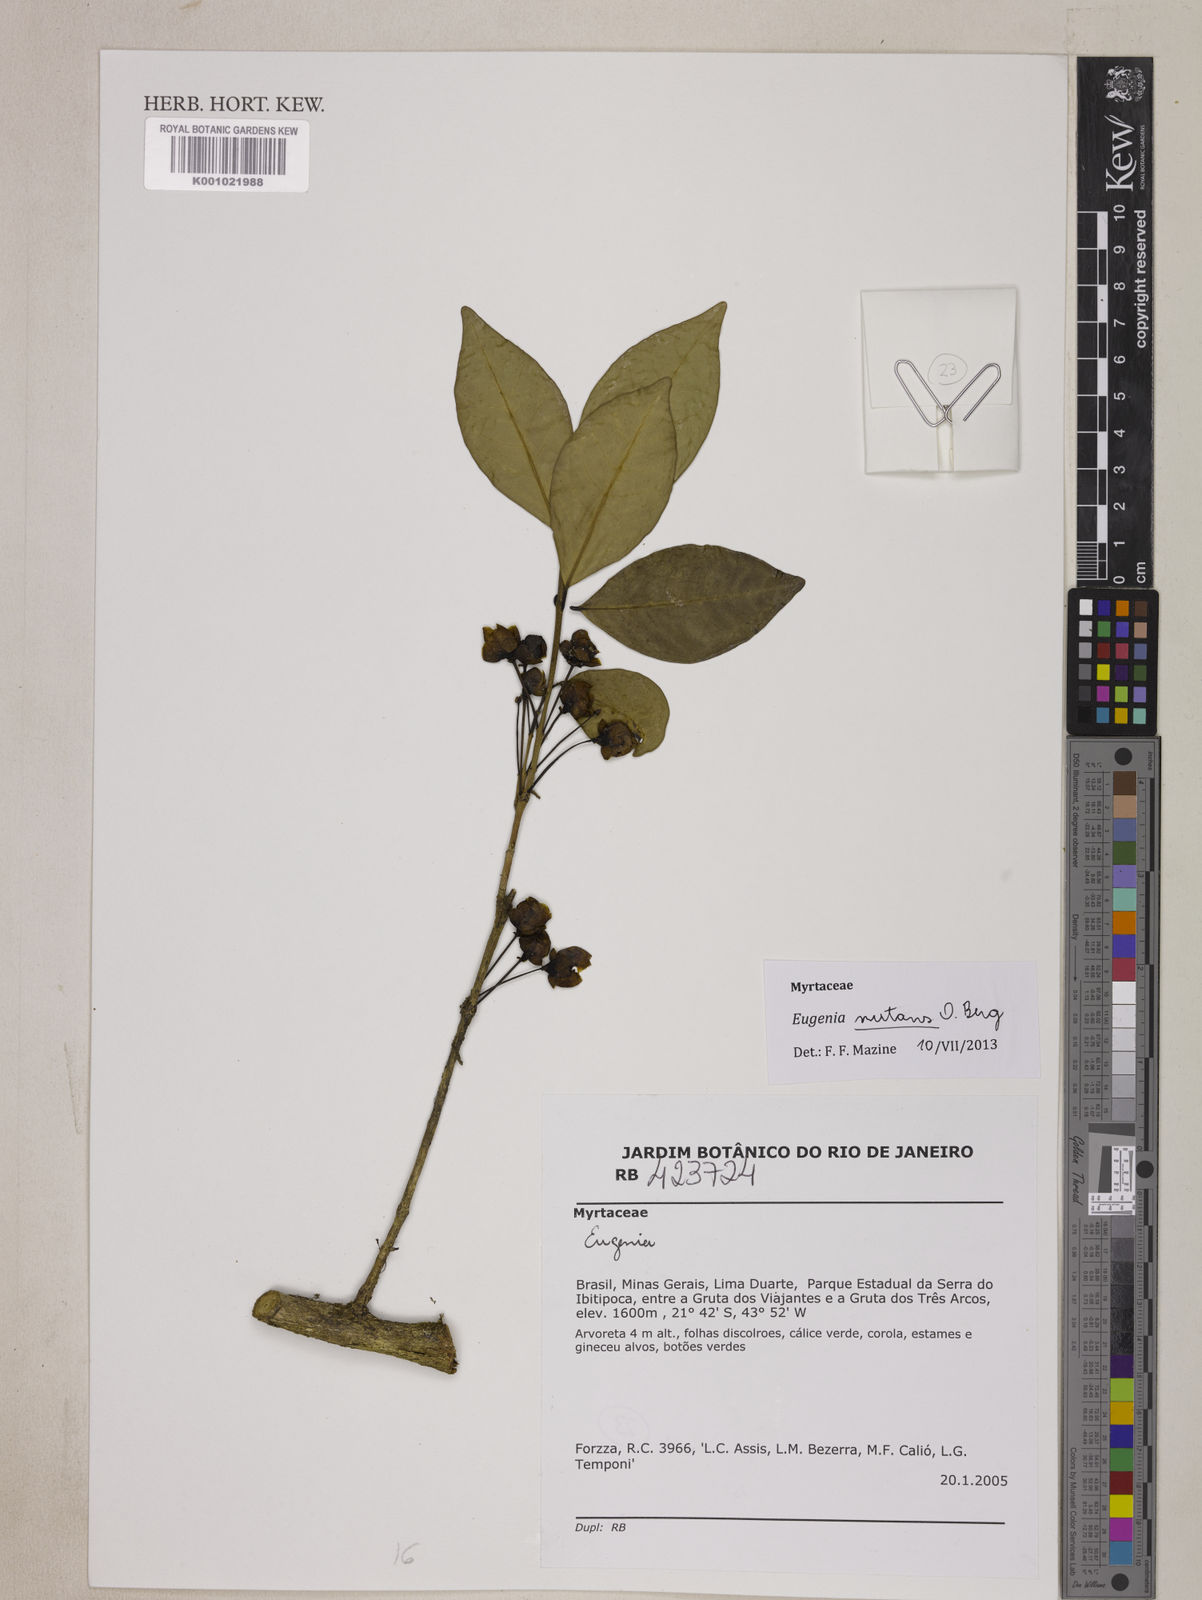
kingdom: Plantae
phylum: Tracheophyta
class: Magnoliopsida
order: Myrtales
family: Myrtaceae
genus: Eugenia
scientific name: Eugenia pyriflora
